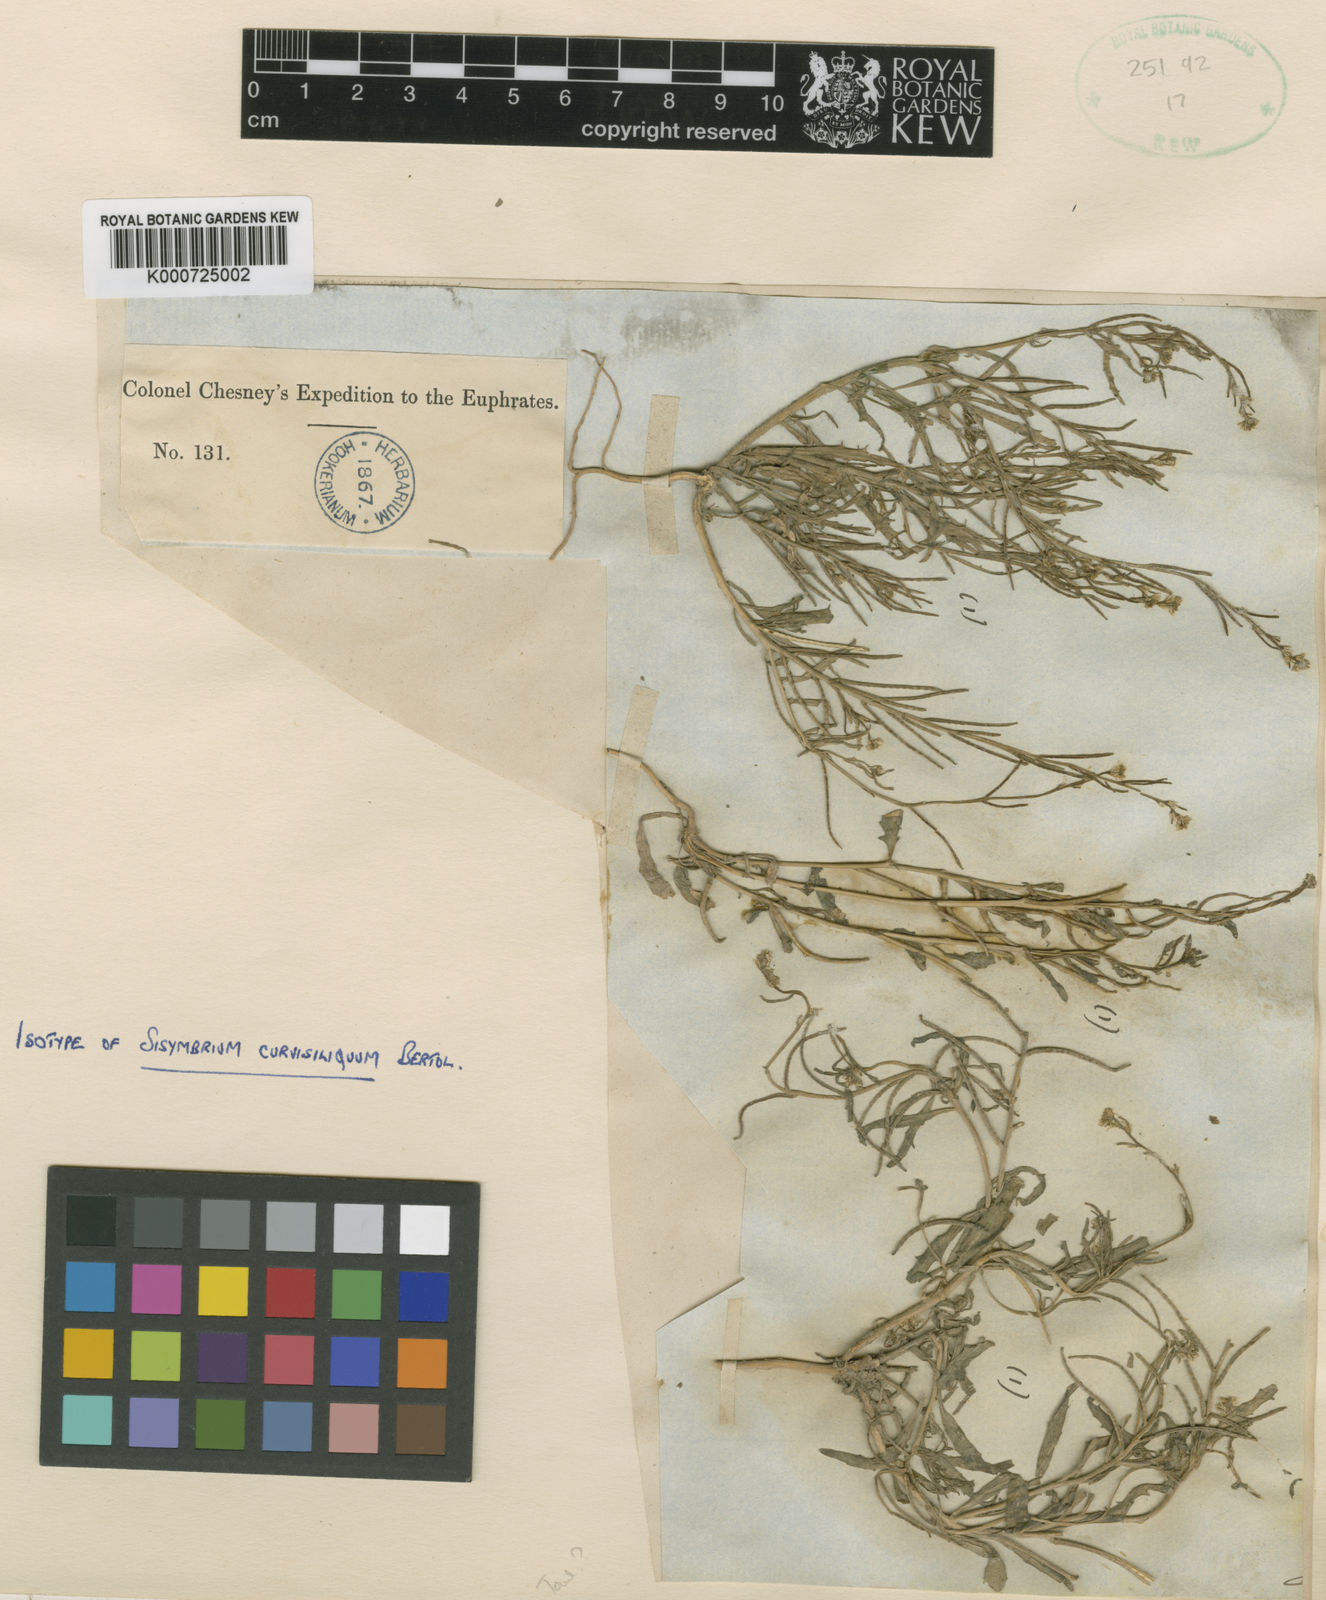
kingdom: Plantae
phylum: Tracheophyta
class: Magnoliopsida
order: Brassicales
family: Brassicaceae
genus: Neotorularia
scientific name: Neotorularia
